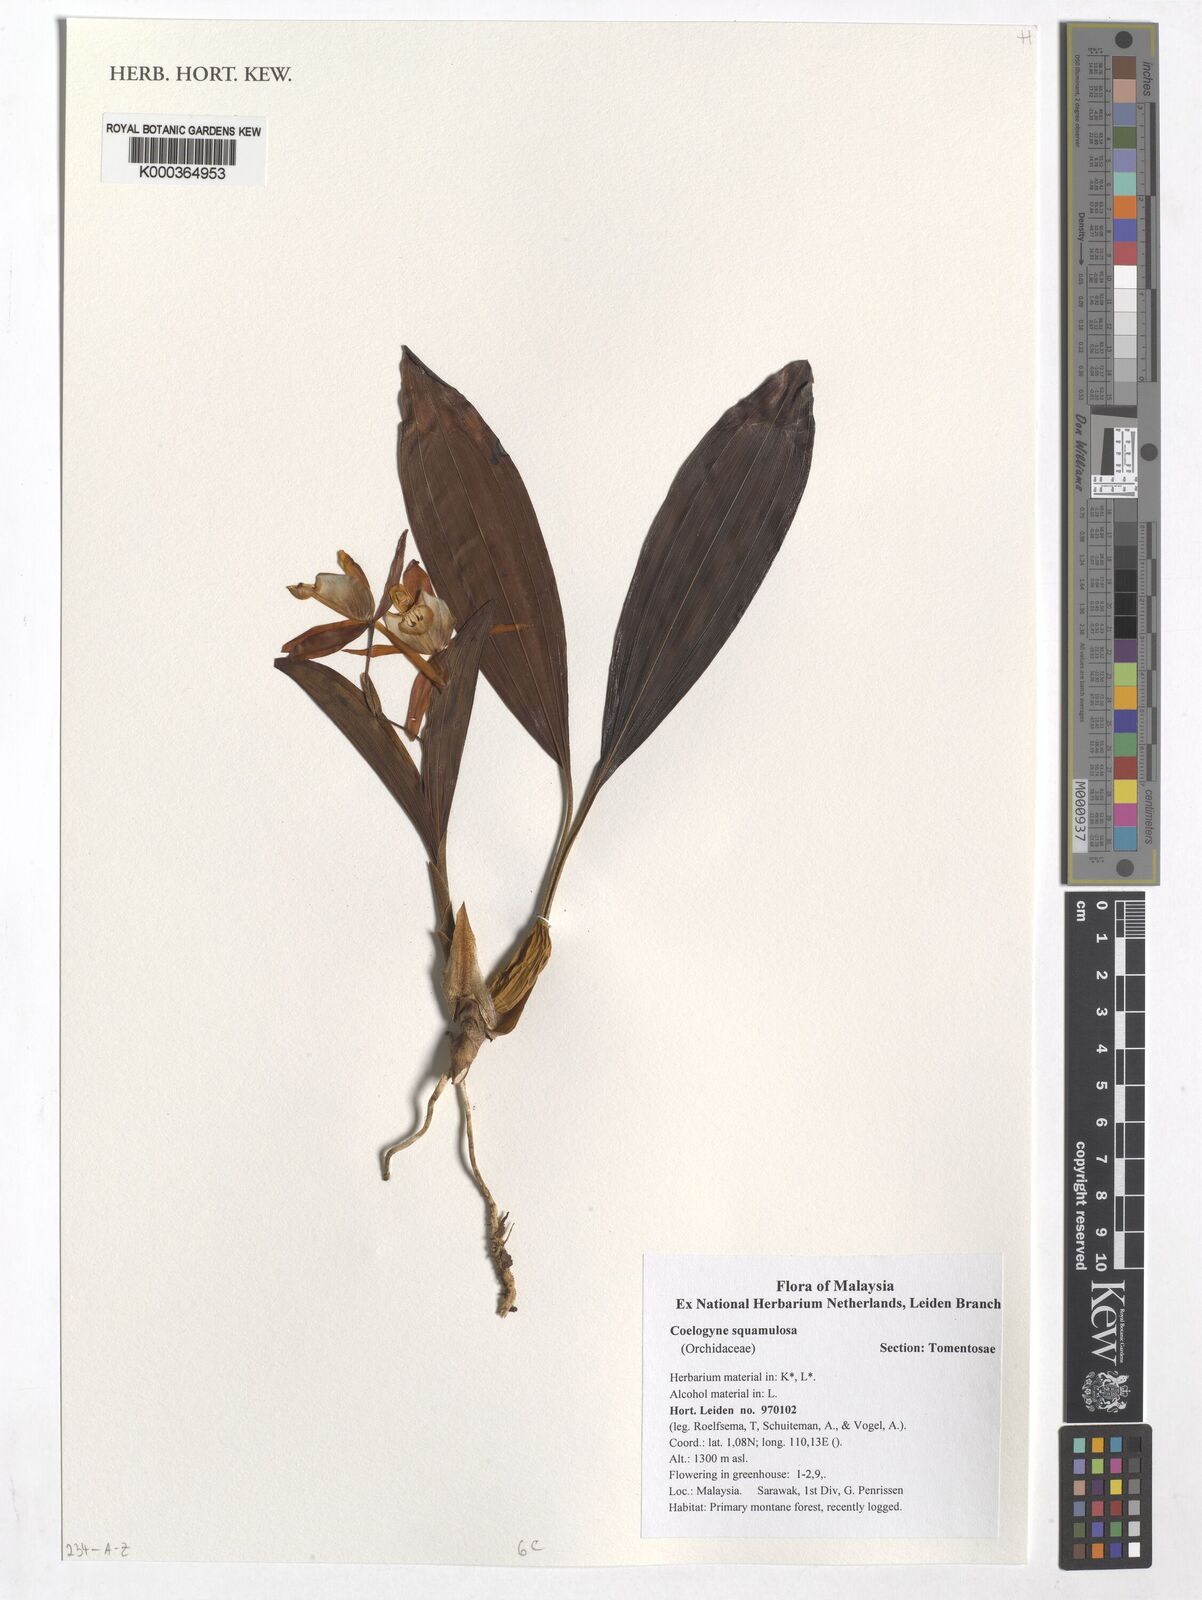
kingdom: Plantae
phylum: Tracheophyta
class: Liliopsida
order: Asparagales
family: Orchidaceae
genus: Coelogyne
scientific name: Coelogyne squamulosa
